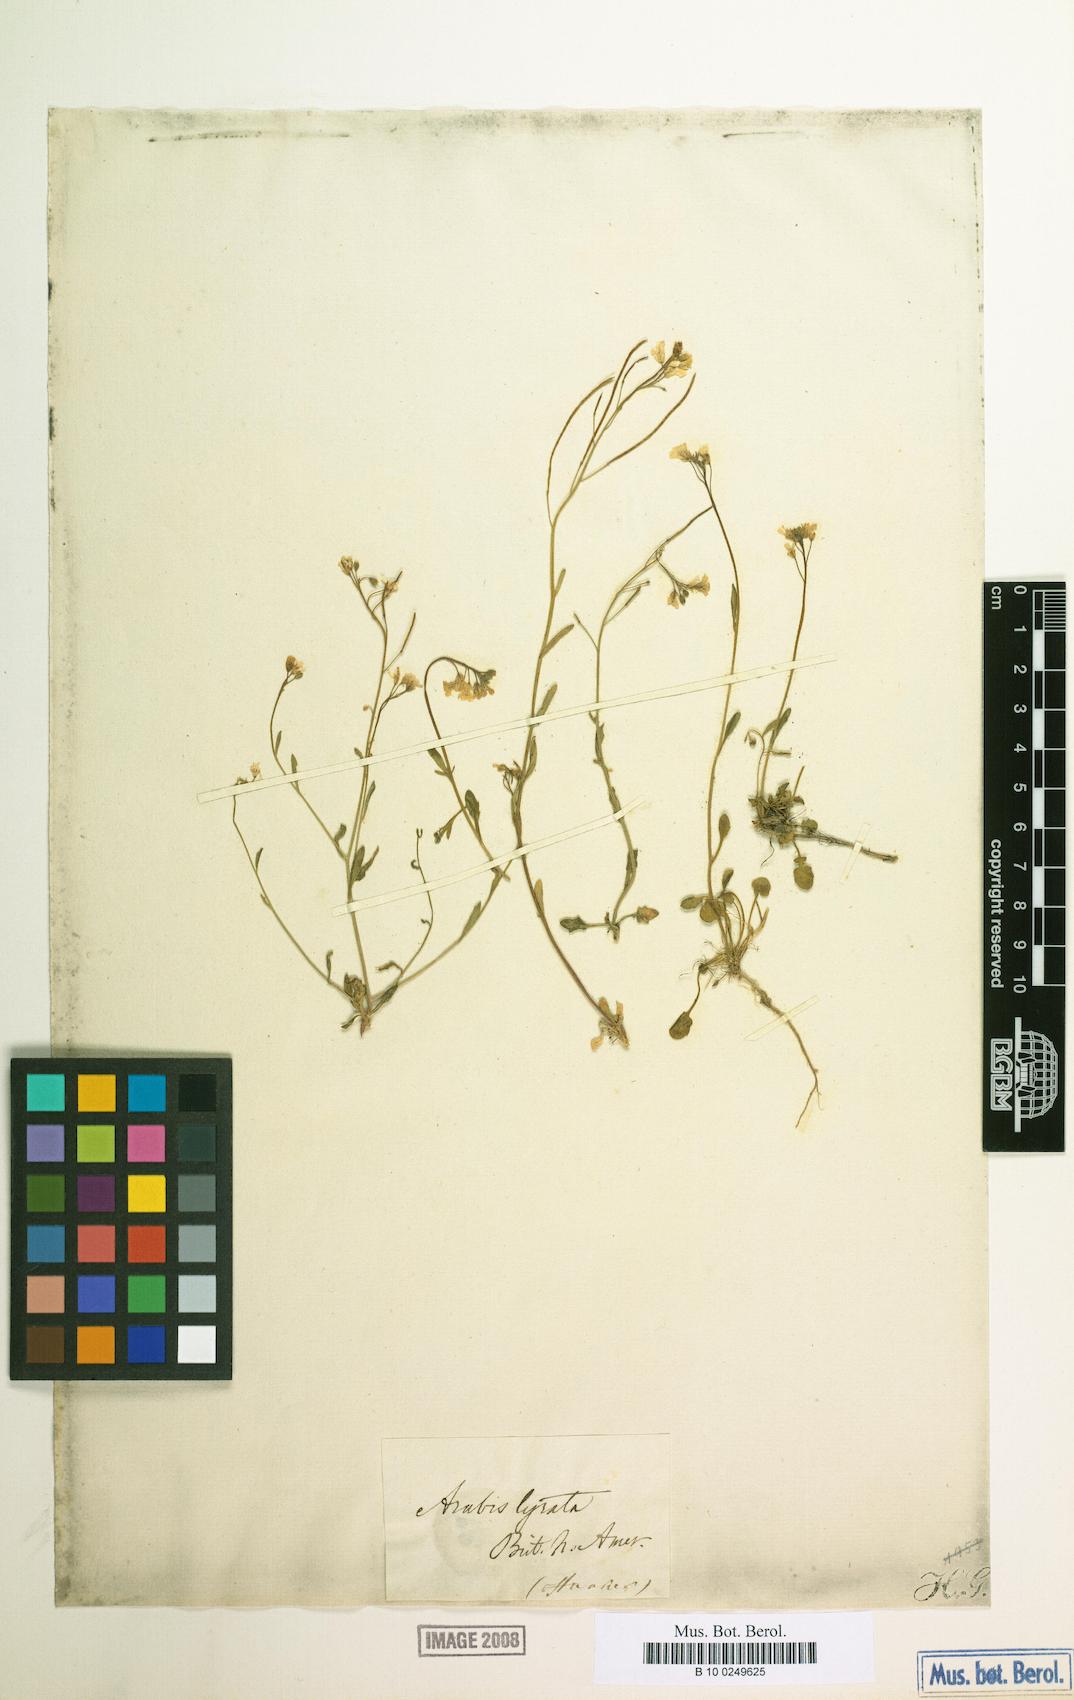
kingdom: Plantae
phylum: Tracheophyta
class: Magnoliopsida
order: Brassicales
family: Brassicaceae
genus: Arabidopsis
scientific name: Arabidopsis lyrata
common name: Lyrate rockcress
